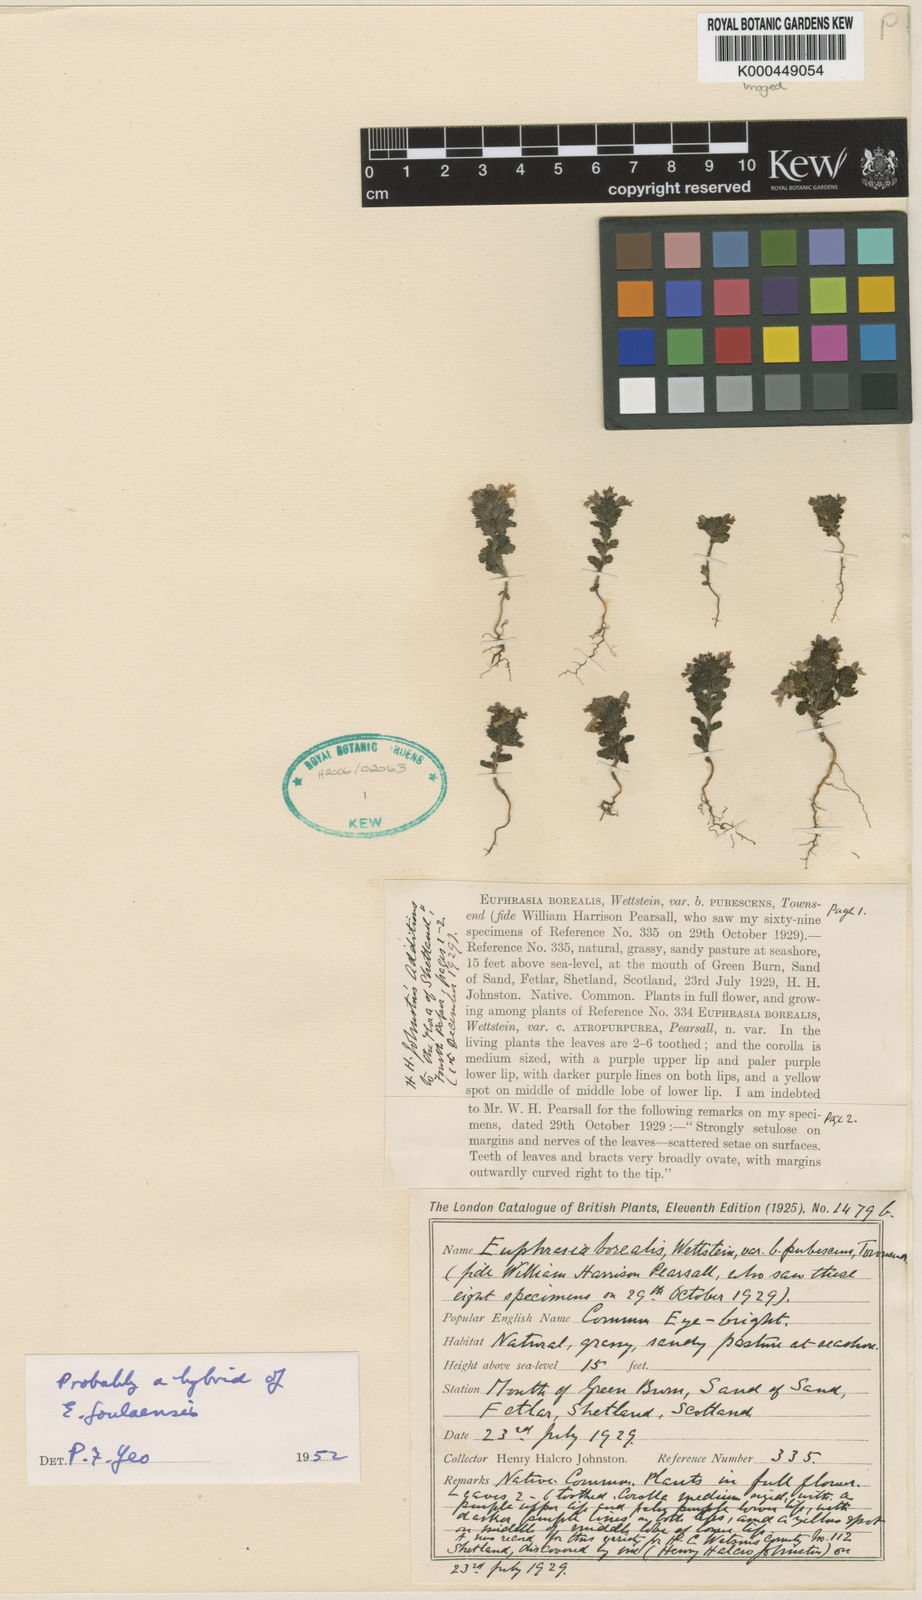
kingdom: Plantae
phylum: Tracheophyta
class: Magnoliopsida
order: Lamiales
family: Orobanchaceae
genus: Euphrasia
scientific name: Euphrasia arctica
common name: An eyebright
